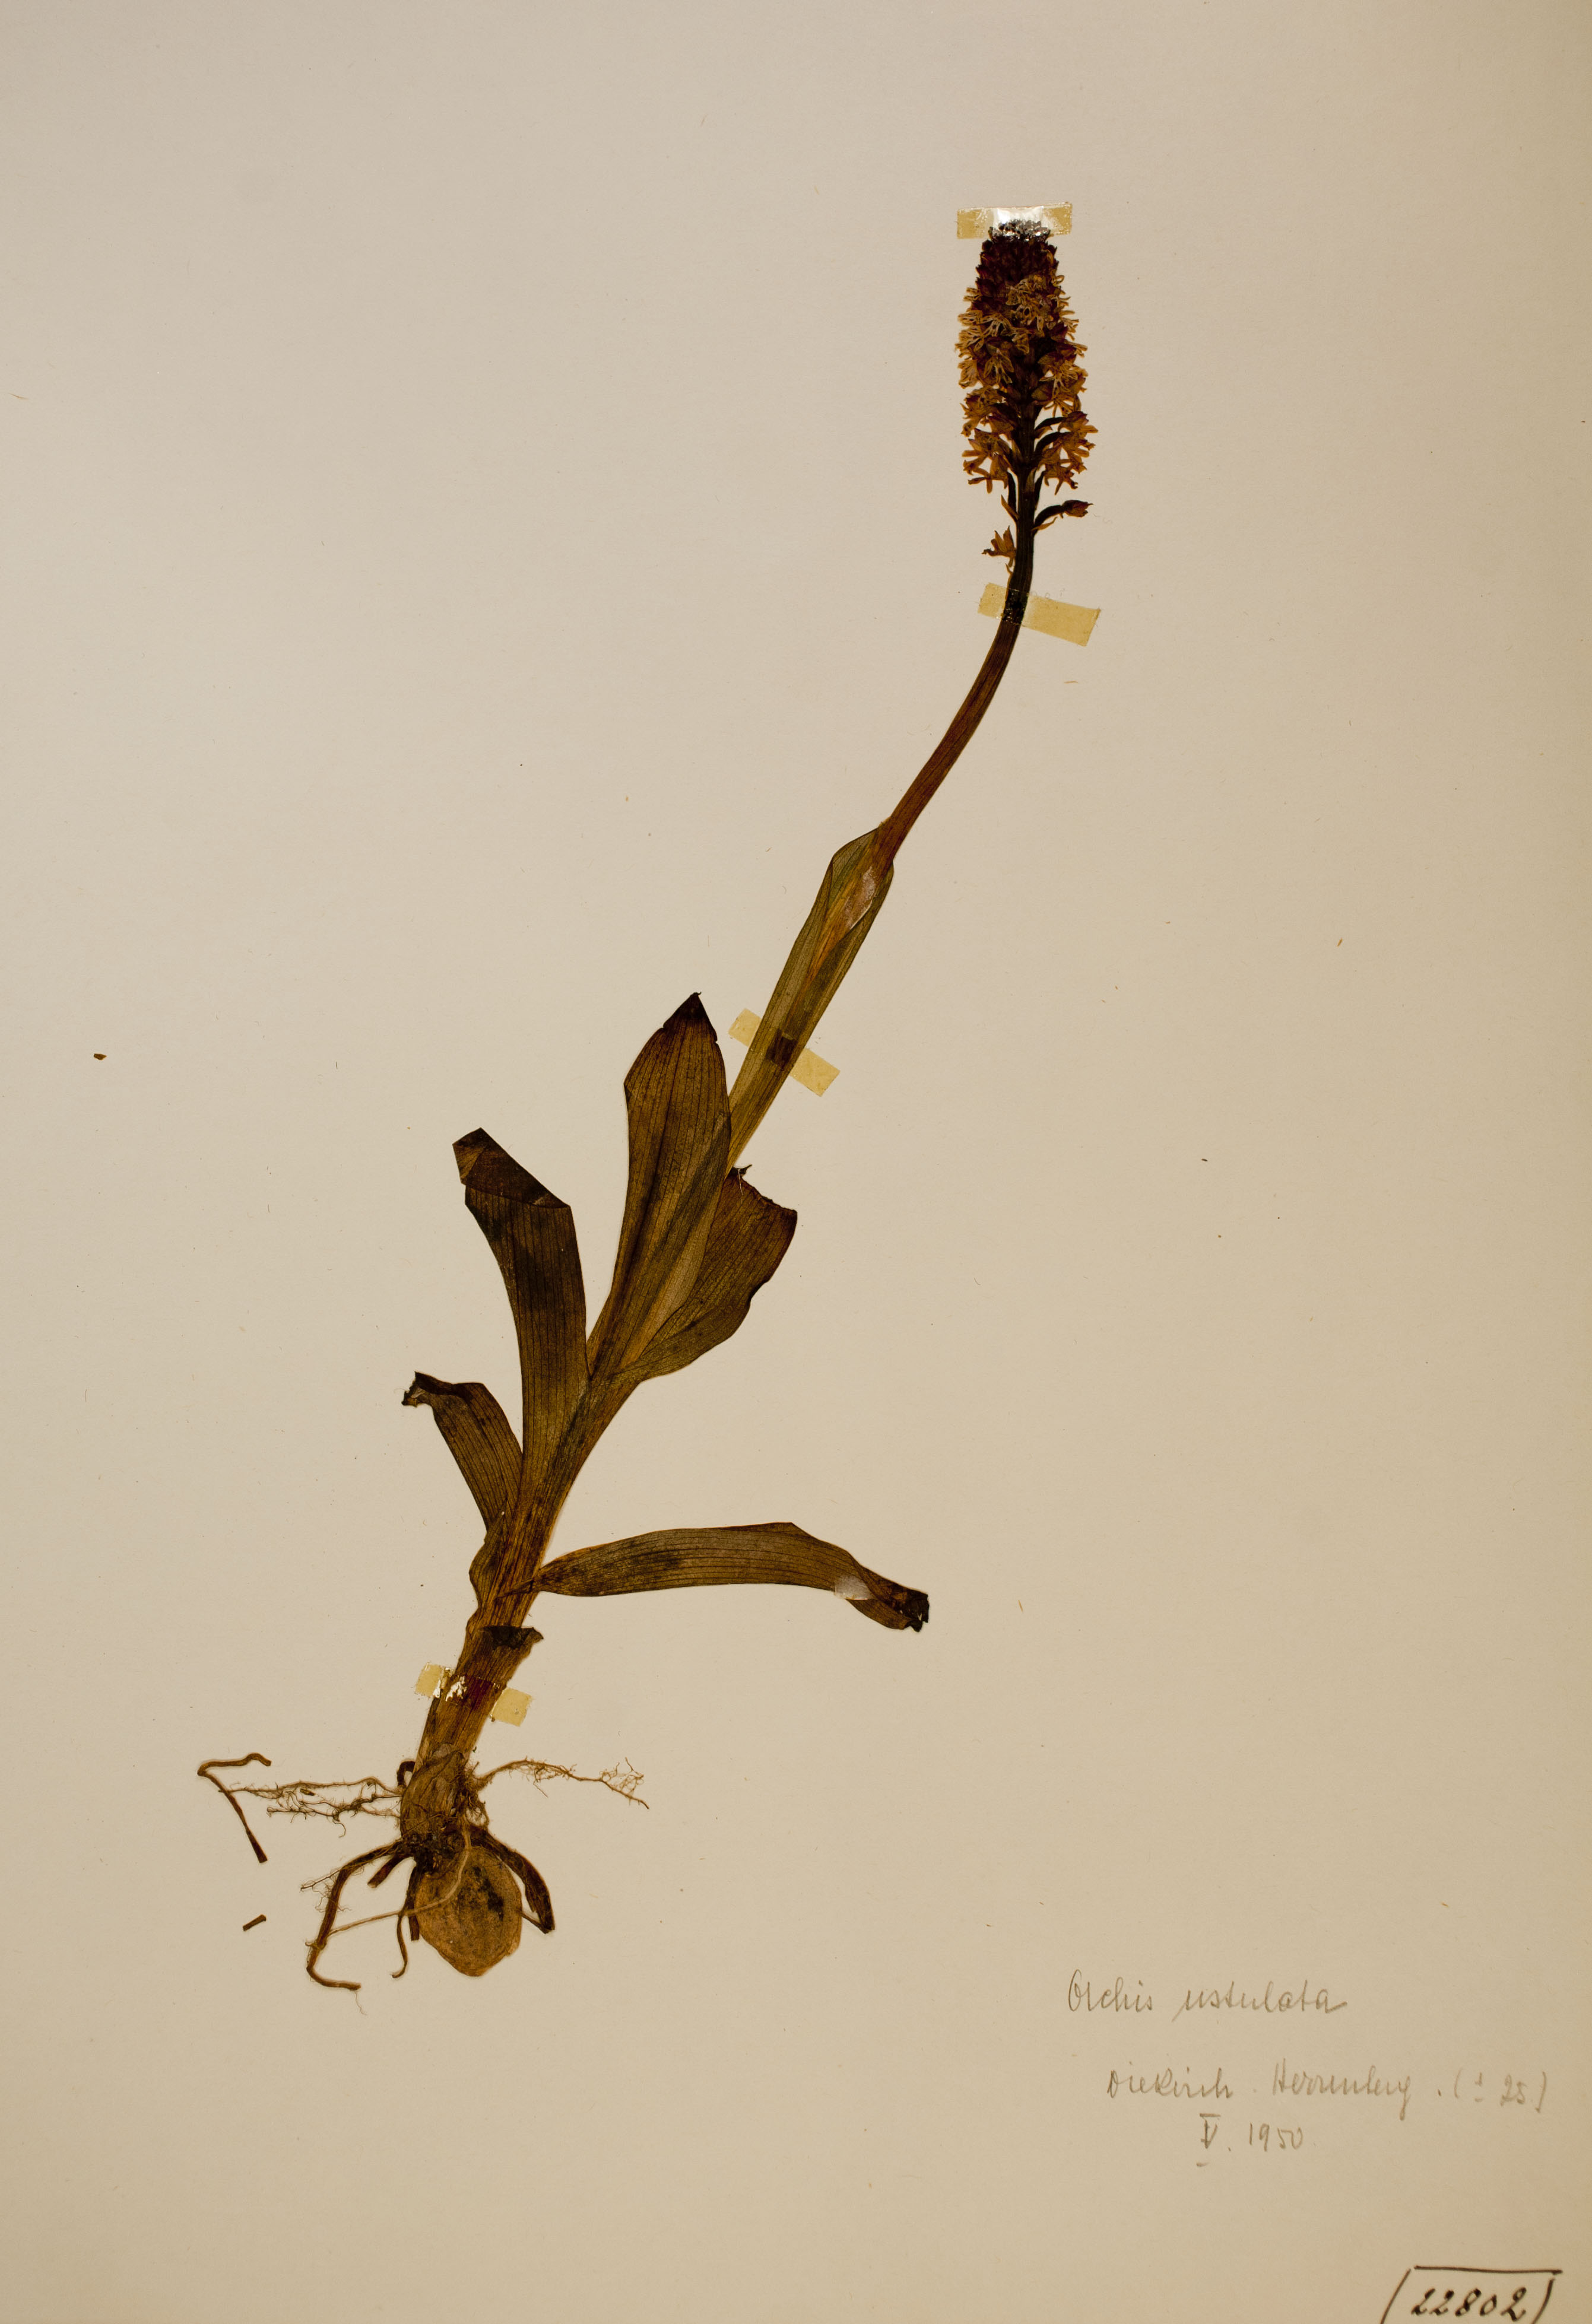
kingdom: Plantae
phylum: Tracheophyta
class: Liliopsida
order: Asparagales
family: Orchidaceae
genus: Neotinea
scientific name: Neotinea ustulata
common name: Burnt orchid
